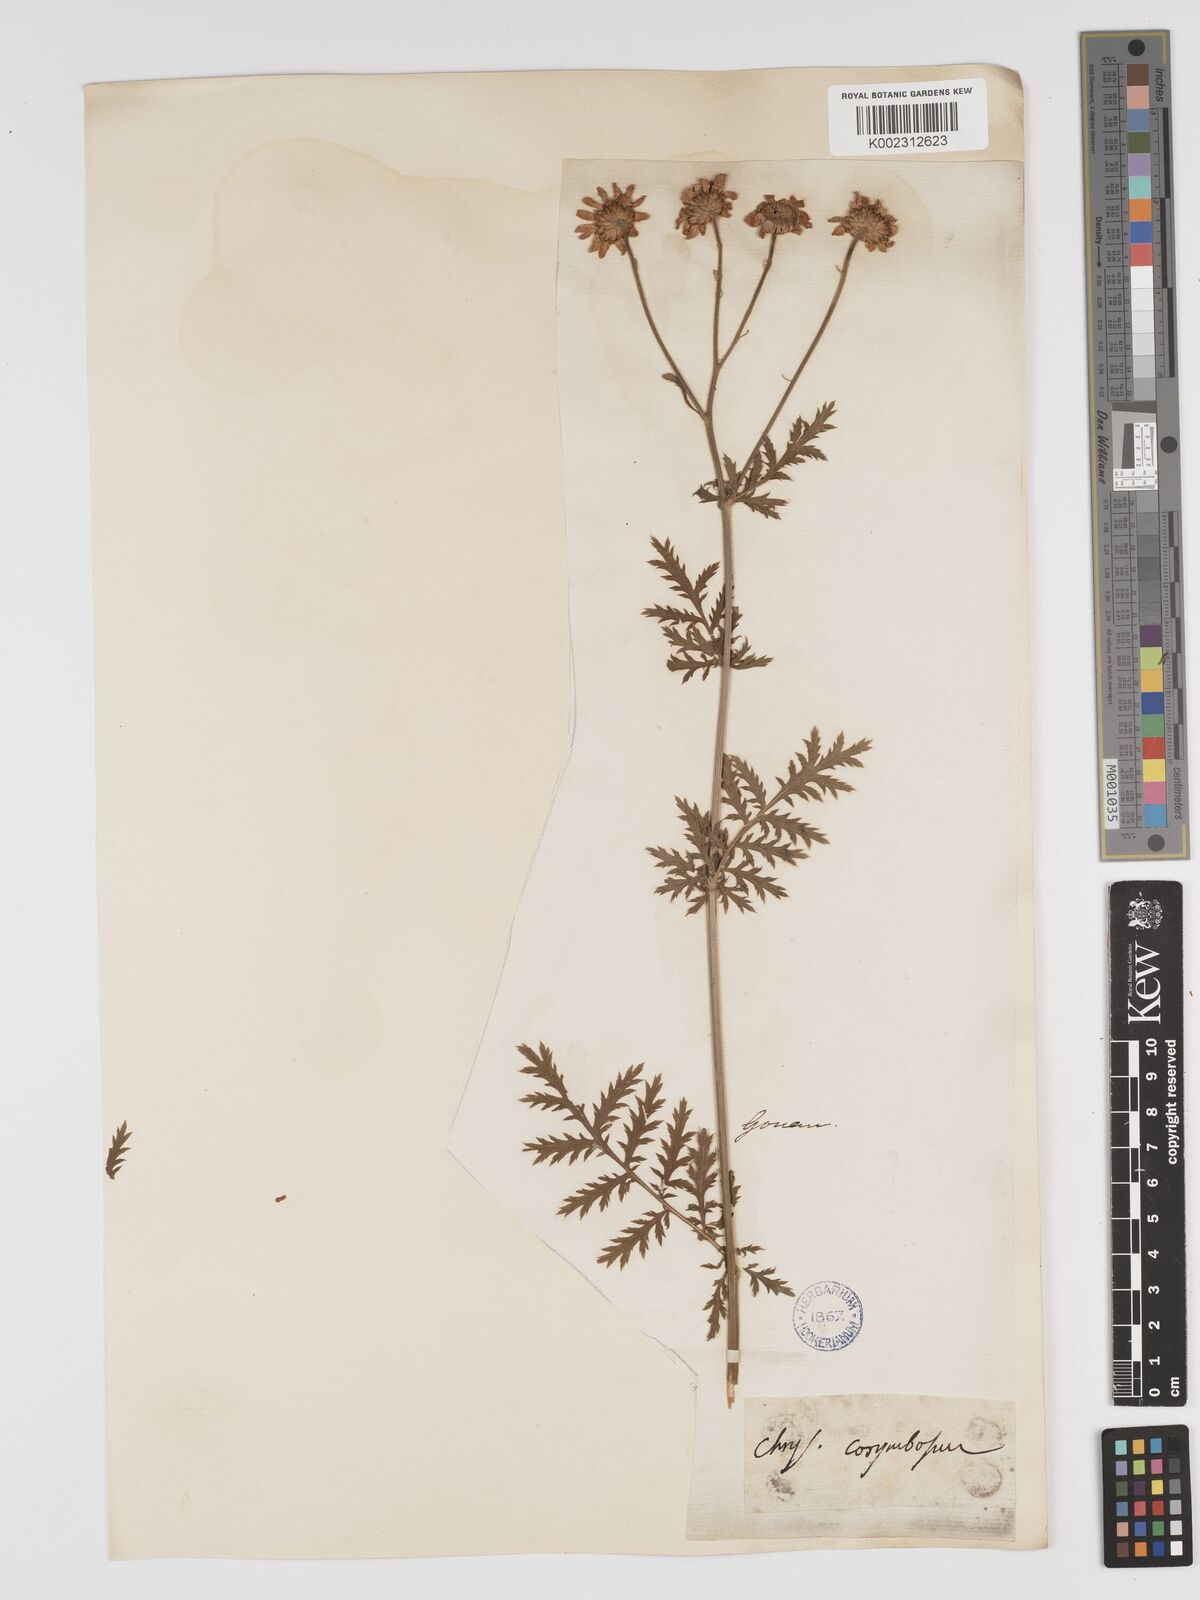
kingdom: Plantae
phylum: Tracheophyta
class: Magnoliopsida
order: Asterales
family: Asteraceae
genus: Tanacetum
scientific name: Tanacetum corymbosum
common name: Scentless feverfew
